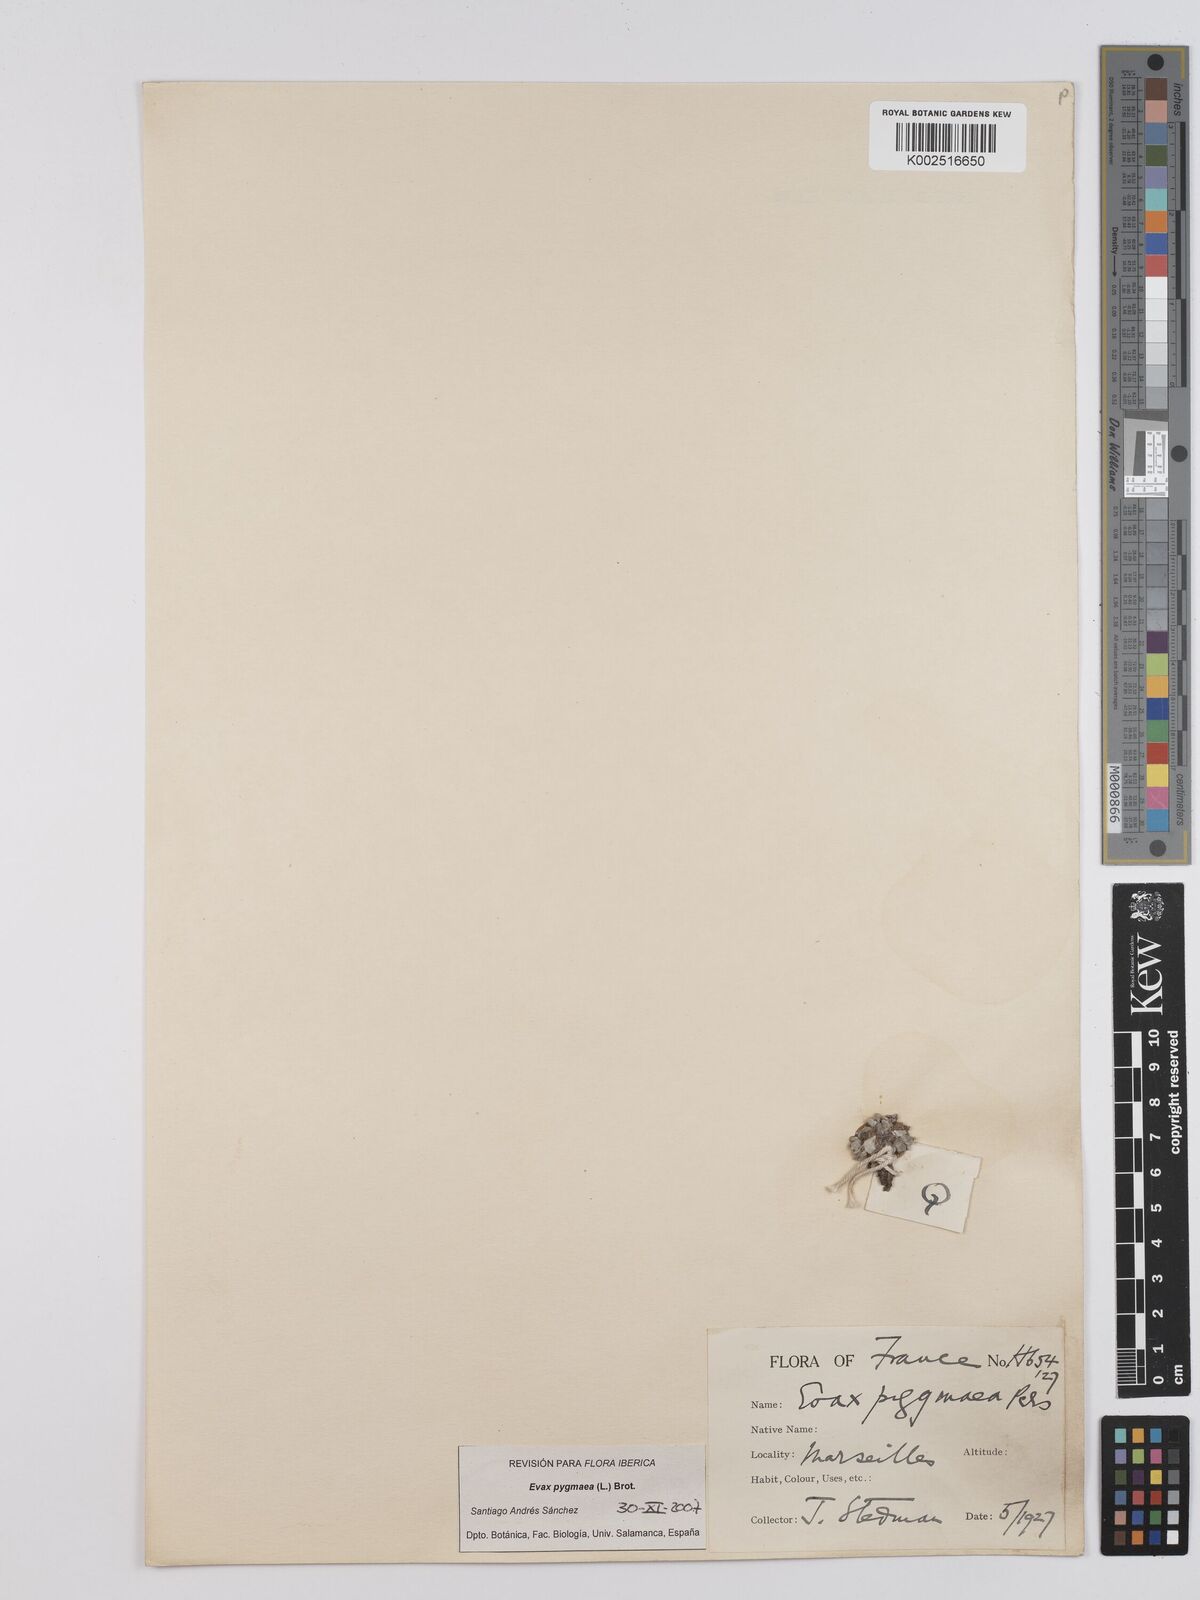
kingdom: Plantae
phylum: Tracheophyta
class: Magnoliopsida
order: Asterales
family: Asteraceae
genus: Filago
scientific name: Filago pygmaea
